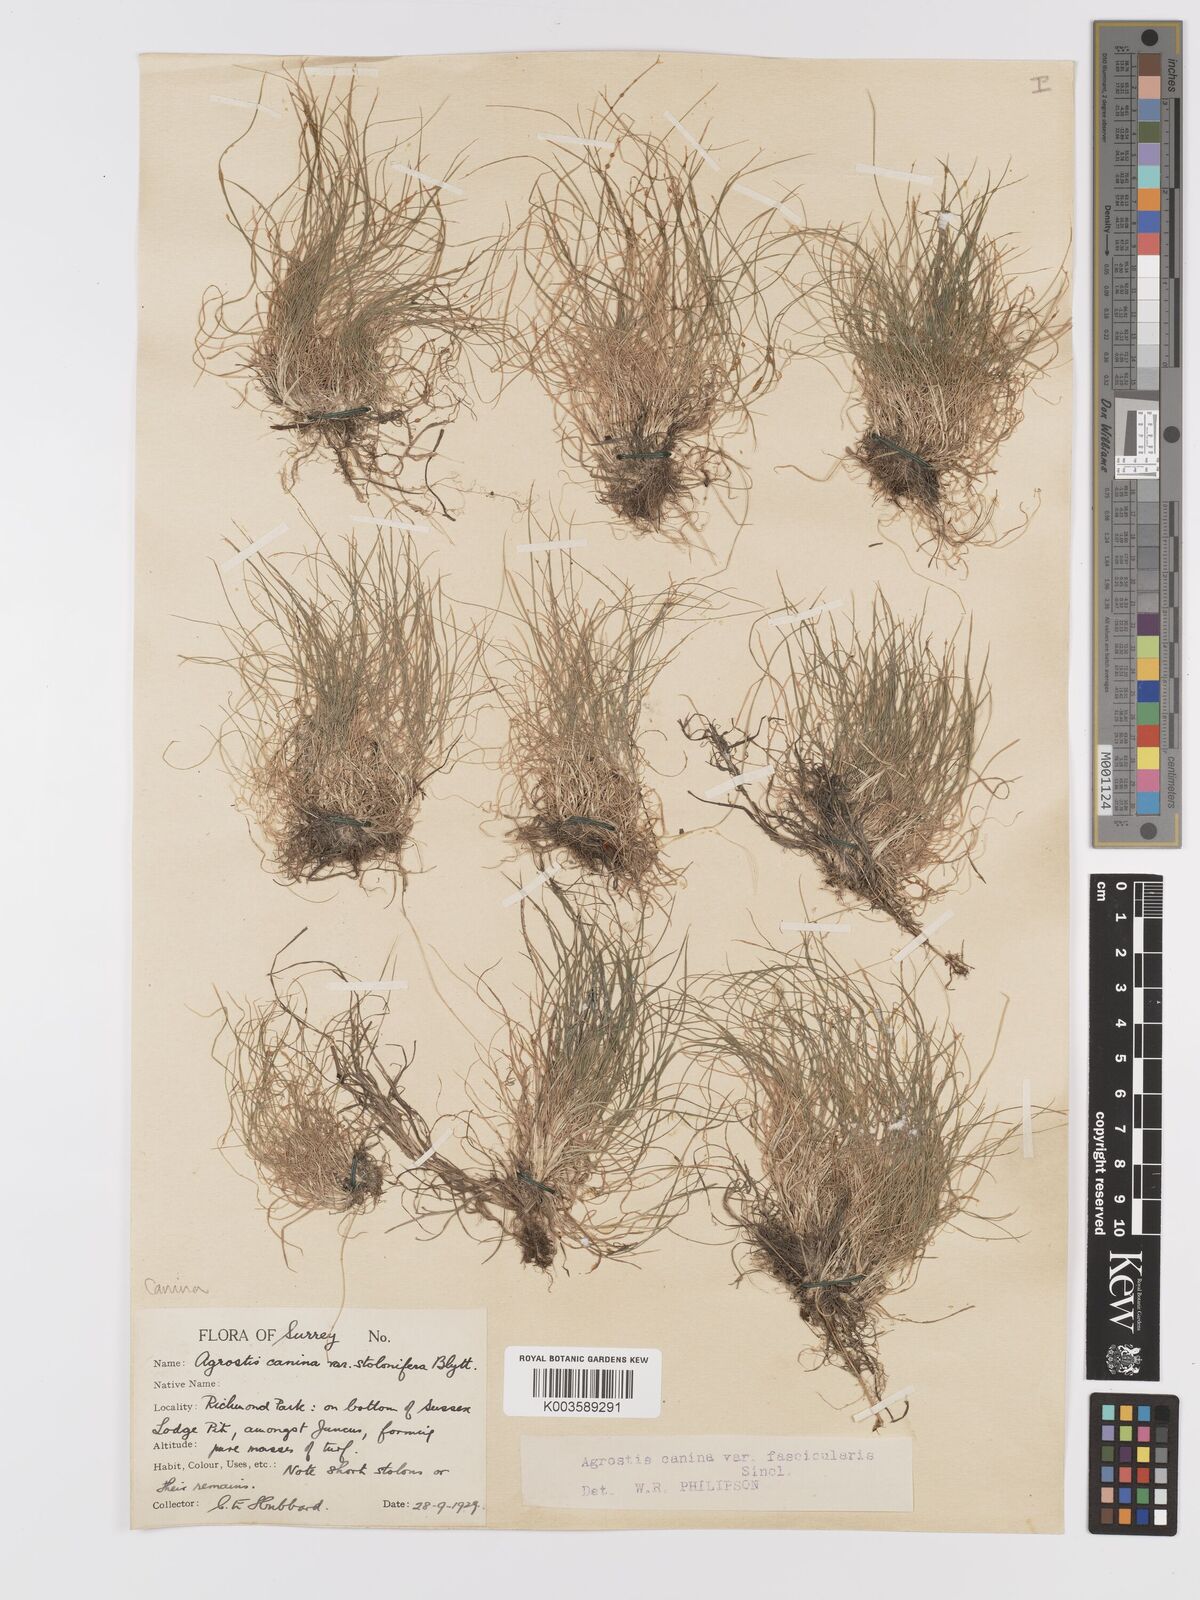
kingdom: Plantae
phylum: Tracheophyta
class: Liliopsida
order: Poales
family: Poaceae
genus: Agrostis
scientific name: Agrostis canina
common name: Velvet bent
